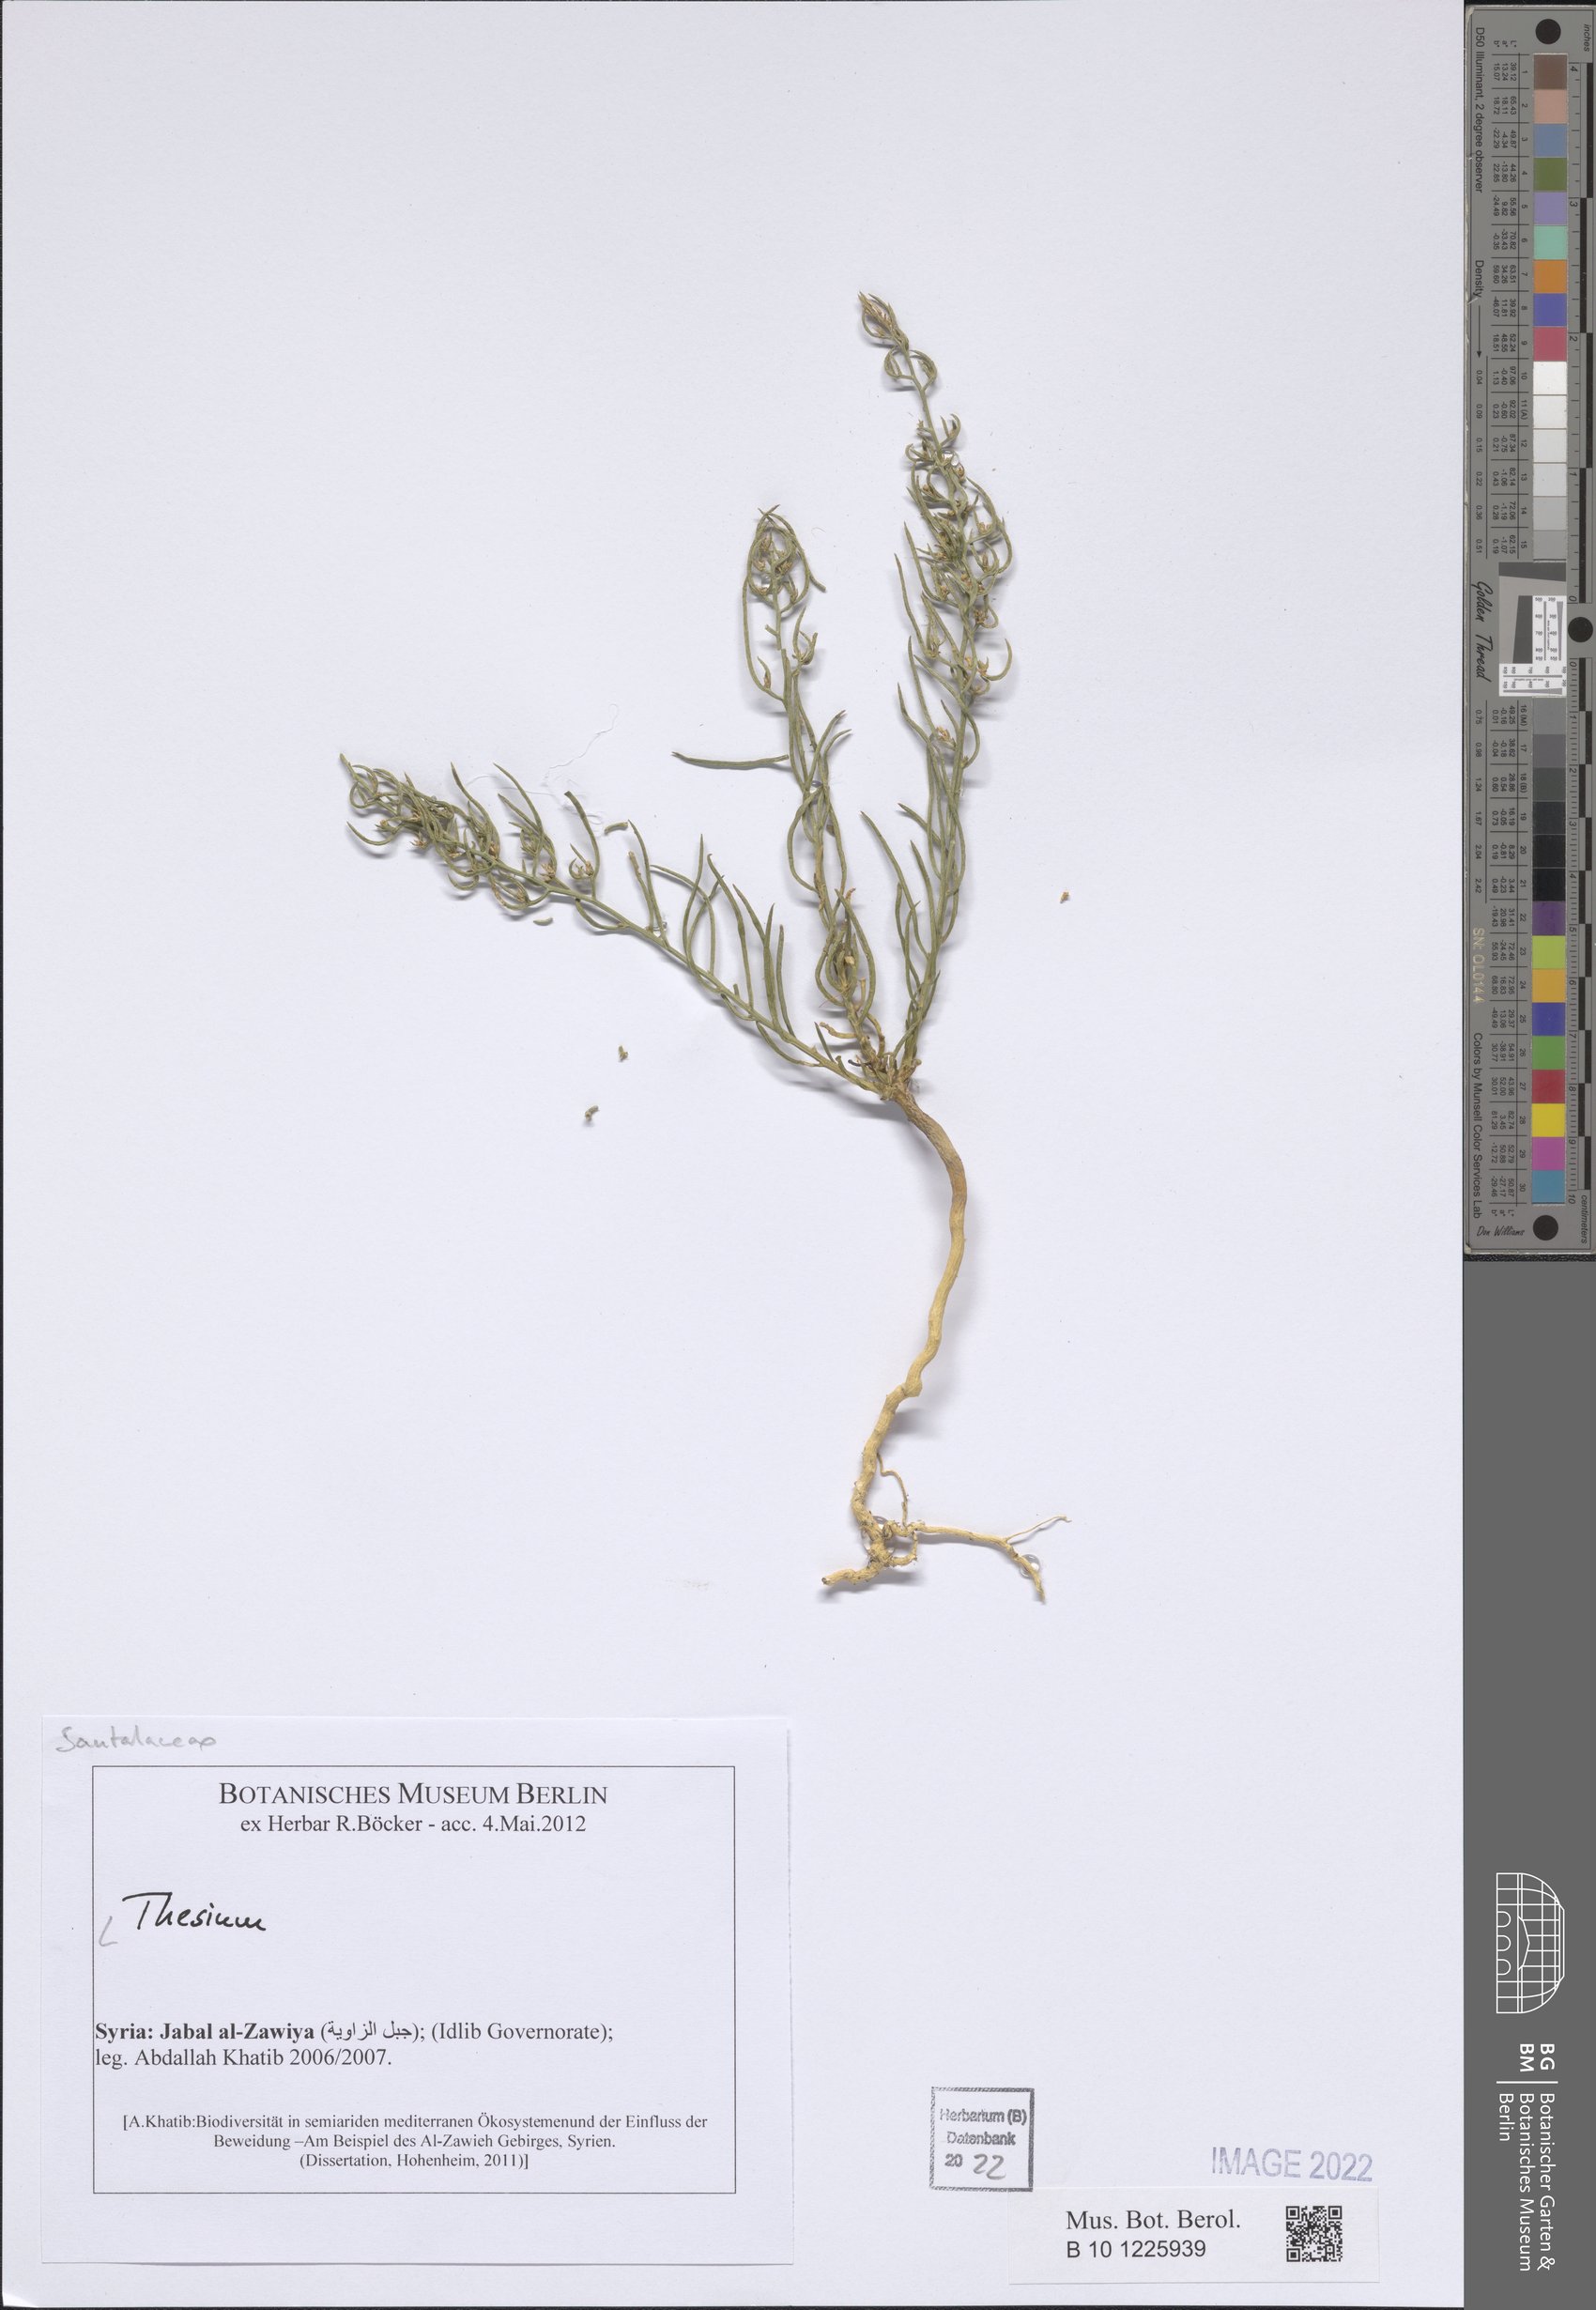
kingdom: Plantae
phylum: Tracheophyta
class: Magnoliopsida
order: Santalales
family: Thesiaceae
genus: Thesium
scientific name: Thesium
